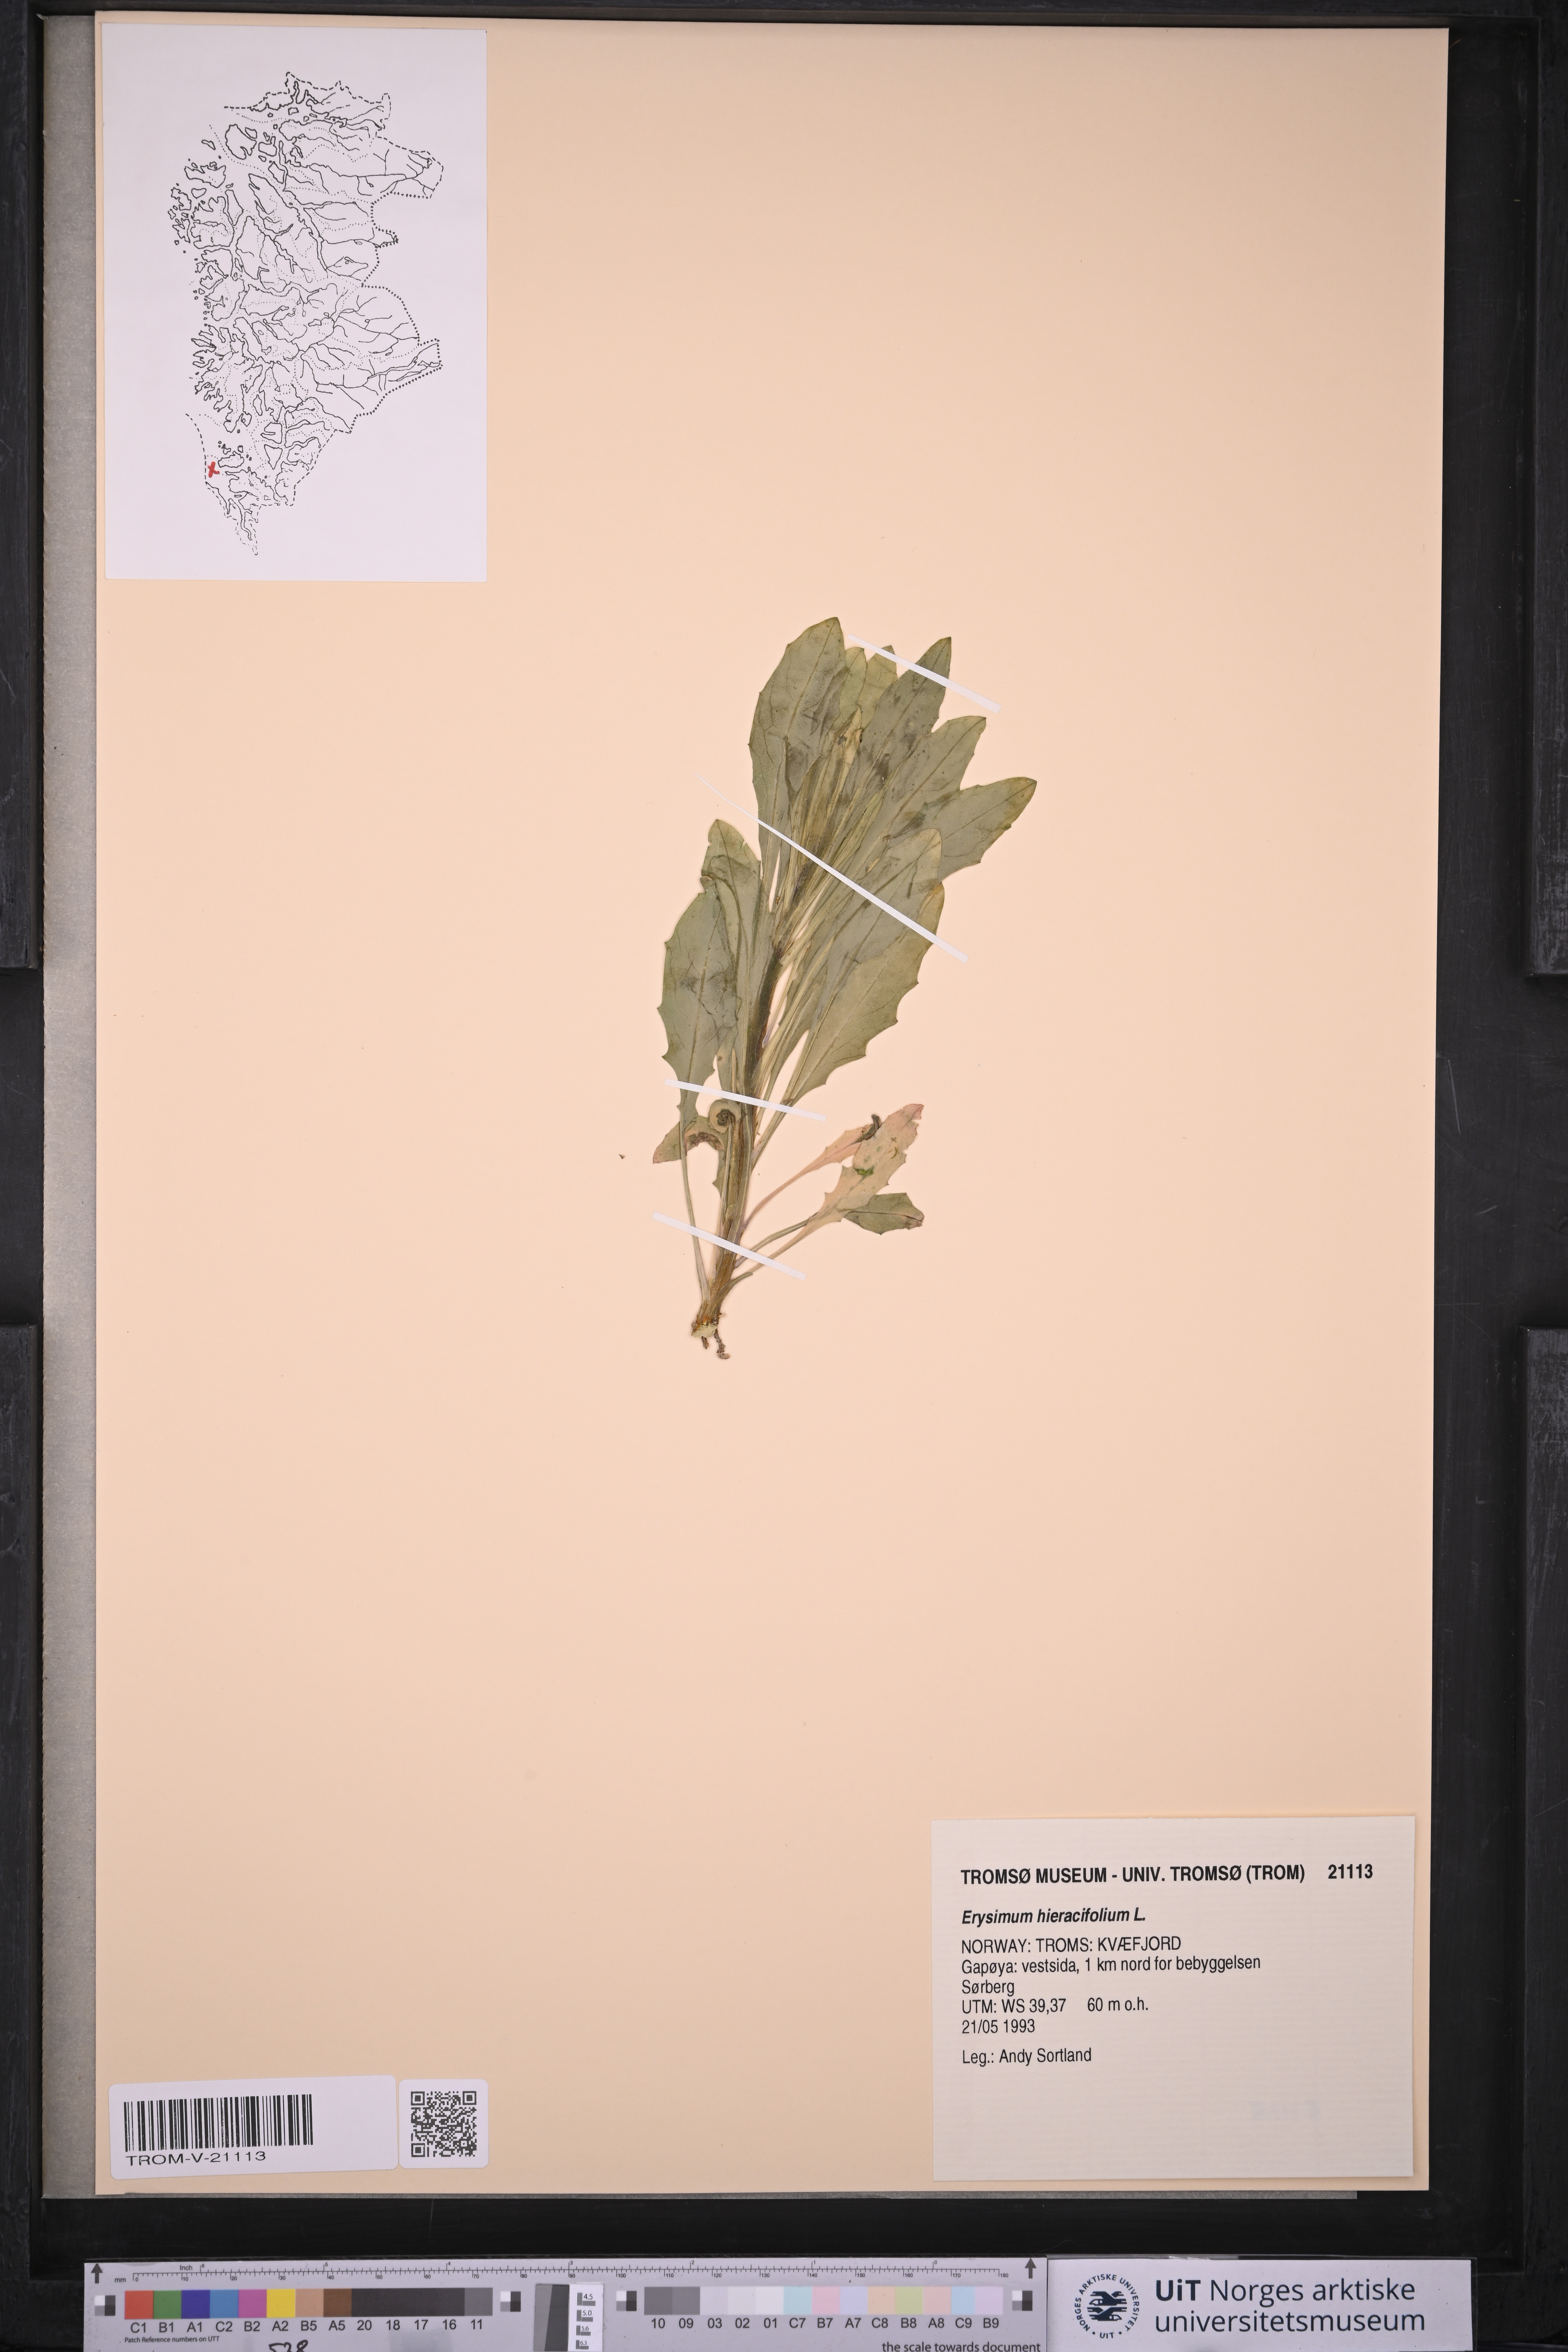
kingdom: Plantae
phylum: Tracheophyta
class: Magnoliopsida
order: Brassicales
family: Brassicaceae
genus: Erysimum
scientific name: Erysimum hieraciifolium
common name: European wallflower
